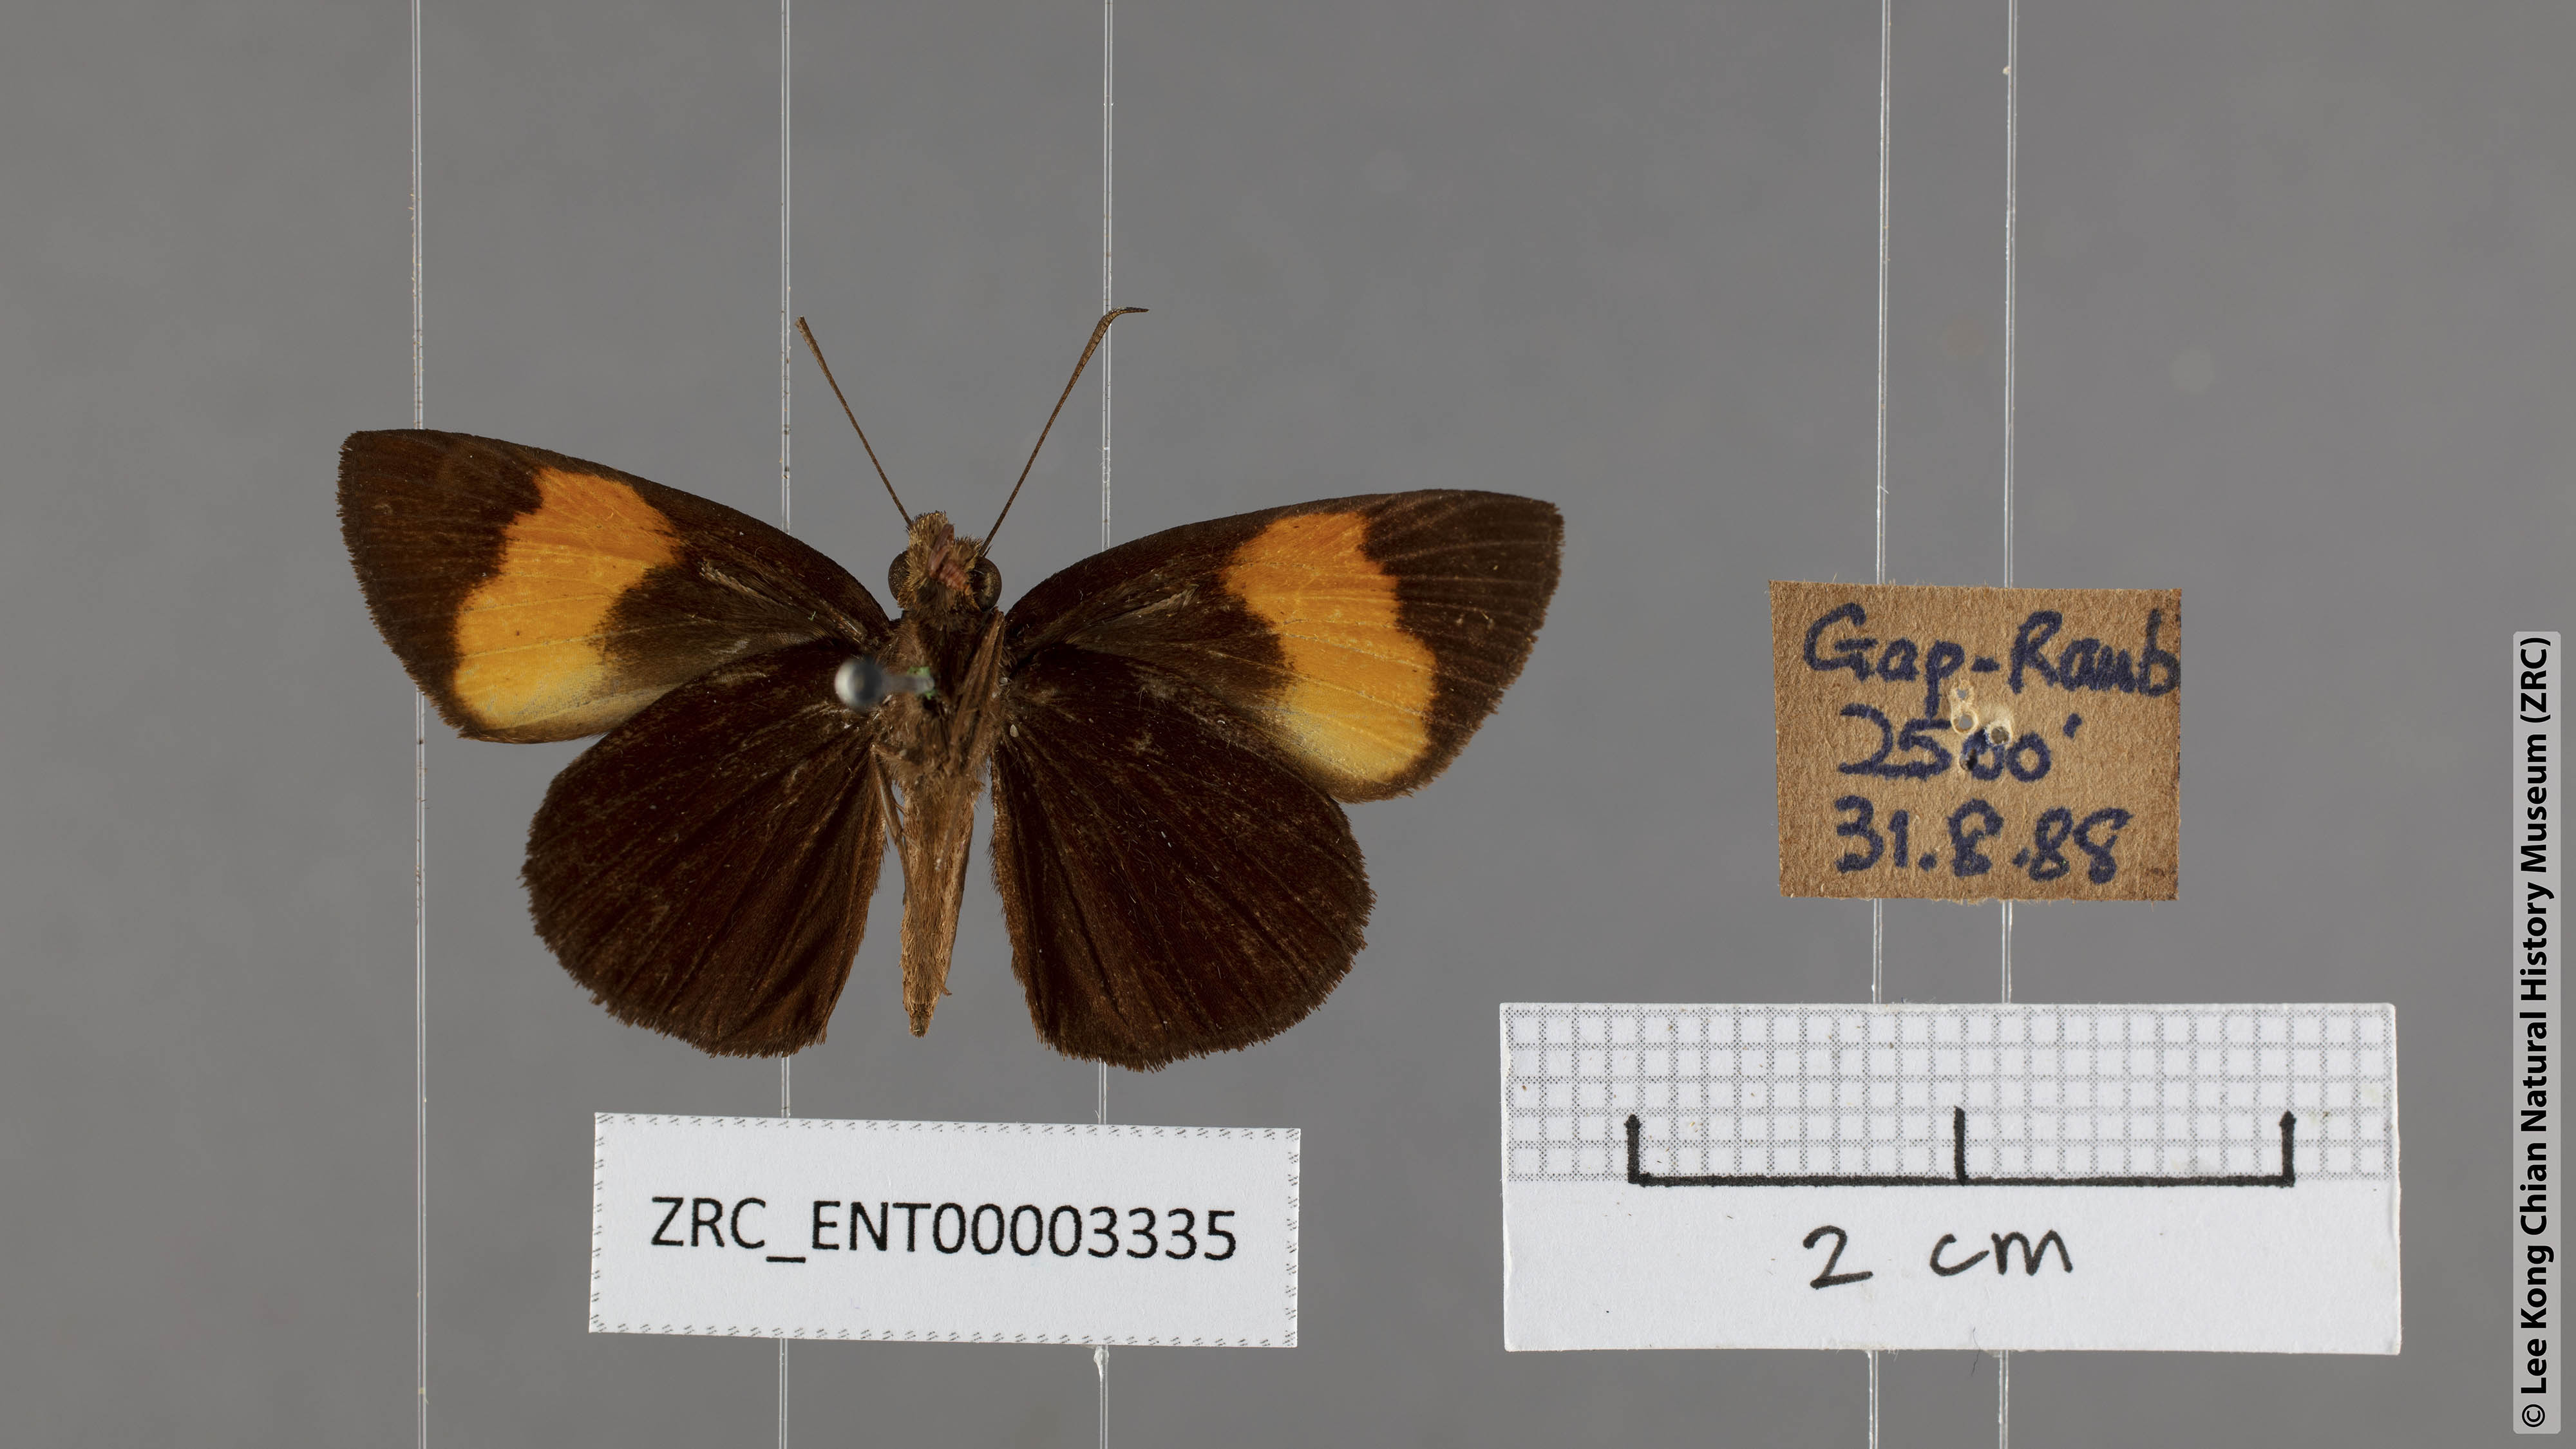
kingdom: Animalia
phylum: Arthropoda
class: Insecta
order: Lepidoptera
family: Hesperiidae
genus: Koruthaialos
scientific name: Koruthaialos sindu
